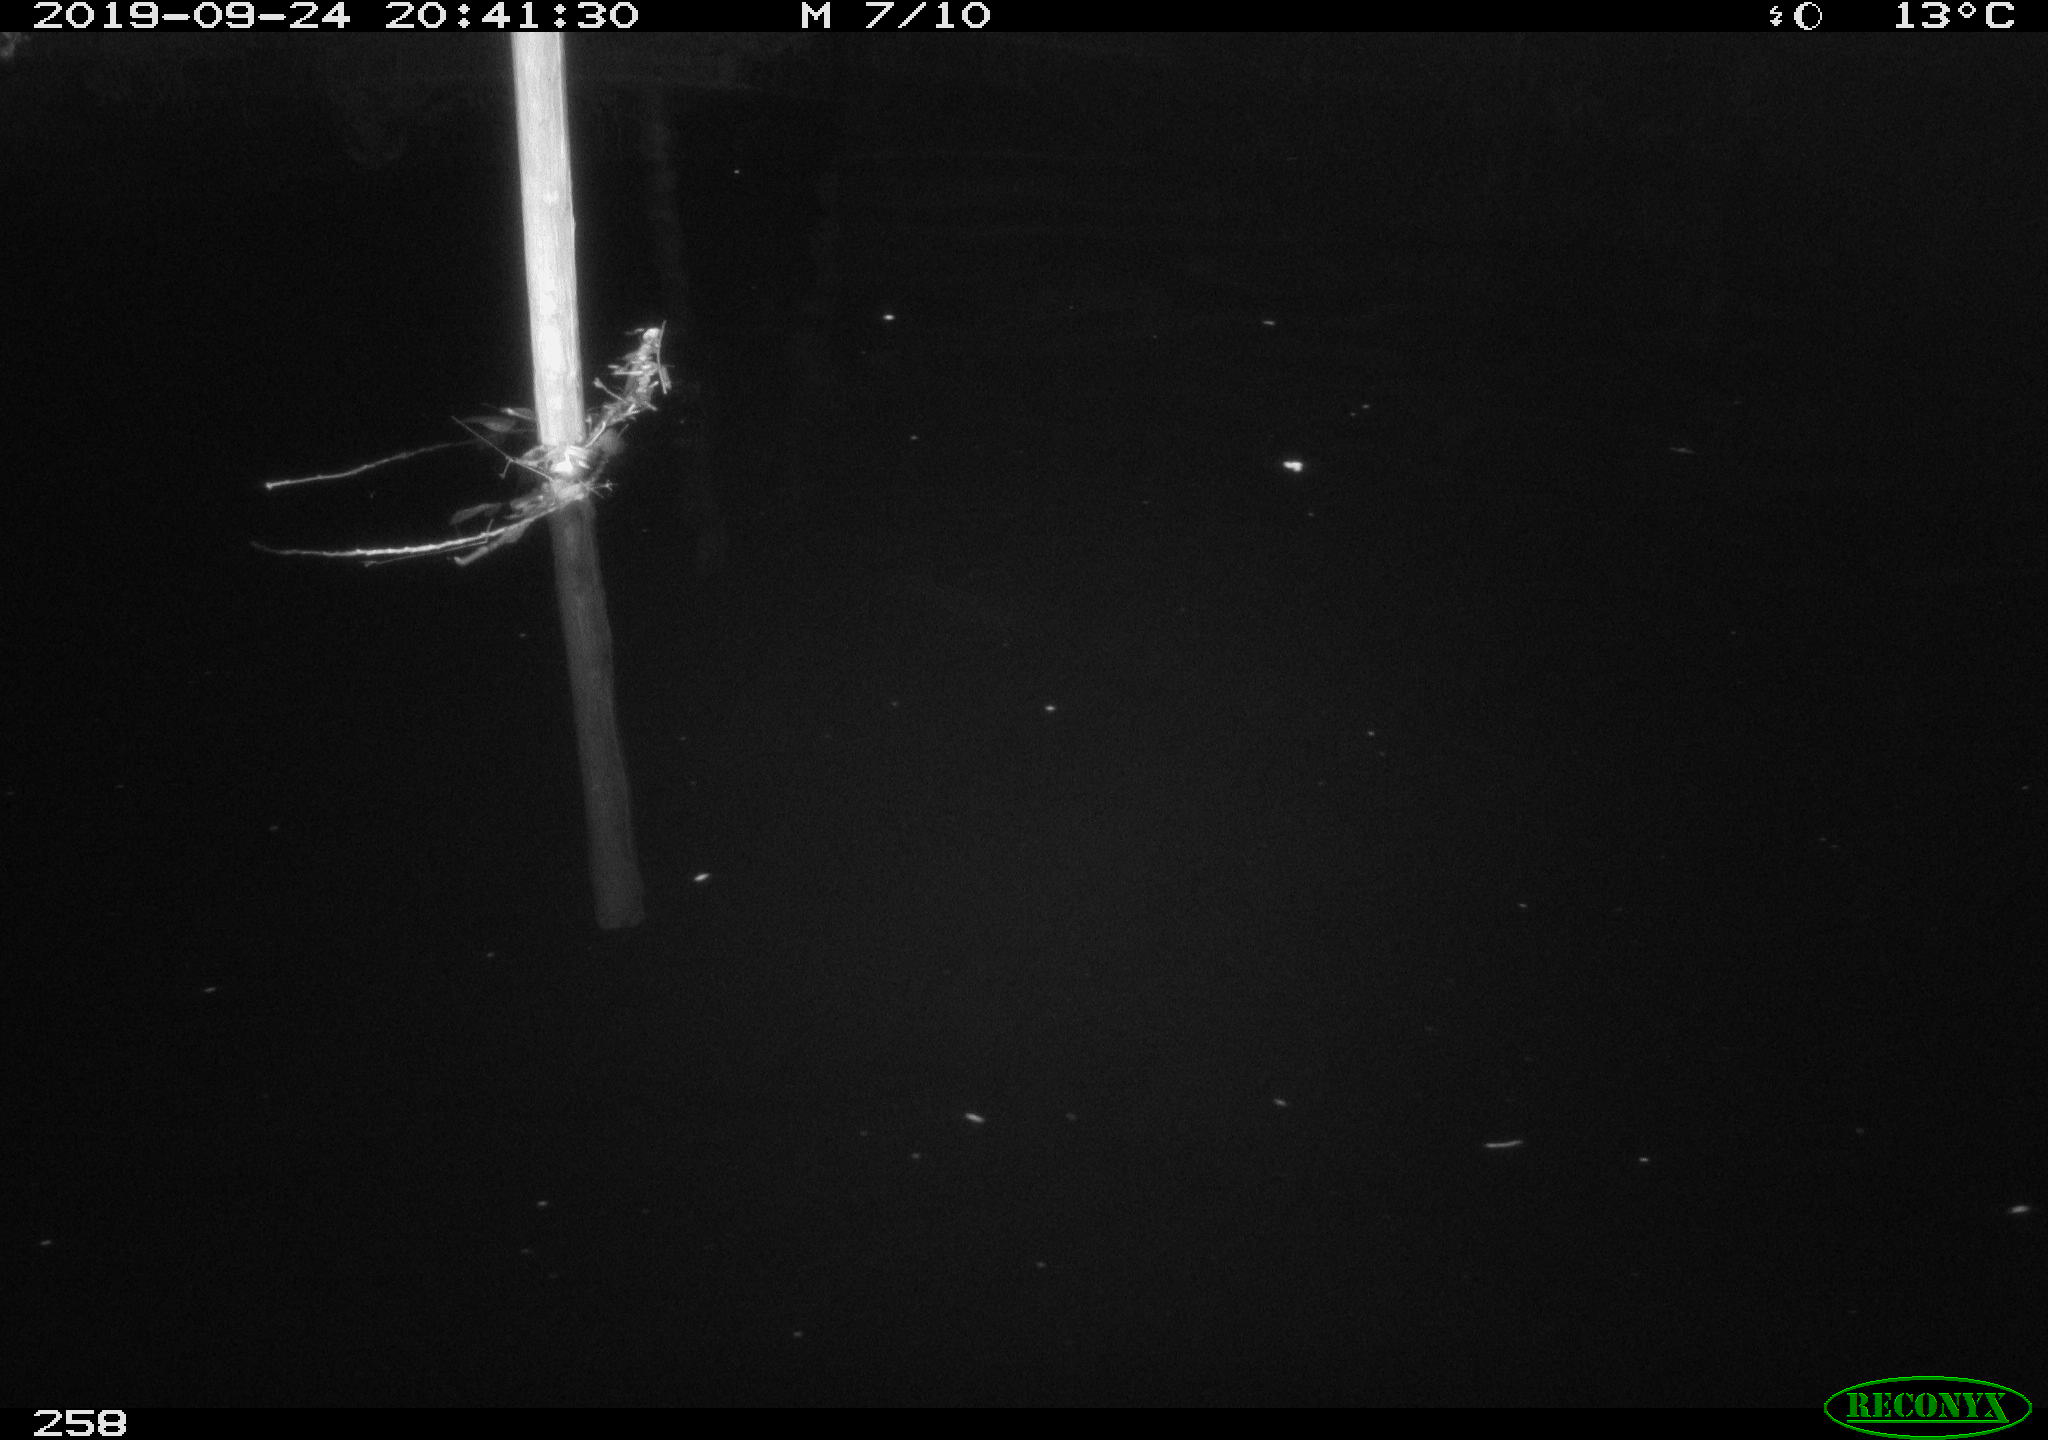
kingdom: Animalia
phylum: Chordata
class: Aves
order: Anseriformes
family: Anatidae
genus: Anas
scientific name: Anas platyrhynchos
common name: Mallard
